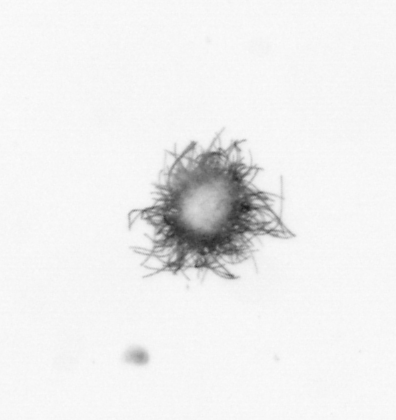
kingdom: Bacteria
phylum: Cyanobacteria
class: Cyanobacteriia
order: Cyanobacteriales
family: Microcoleaceae
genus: Trichodesmium
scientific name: Trichodesmium
